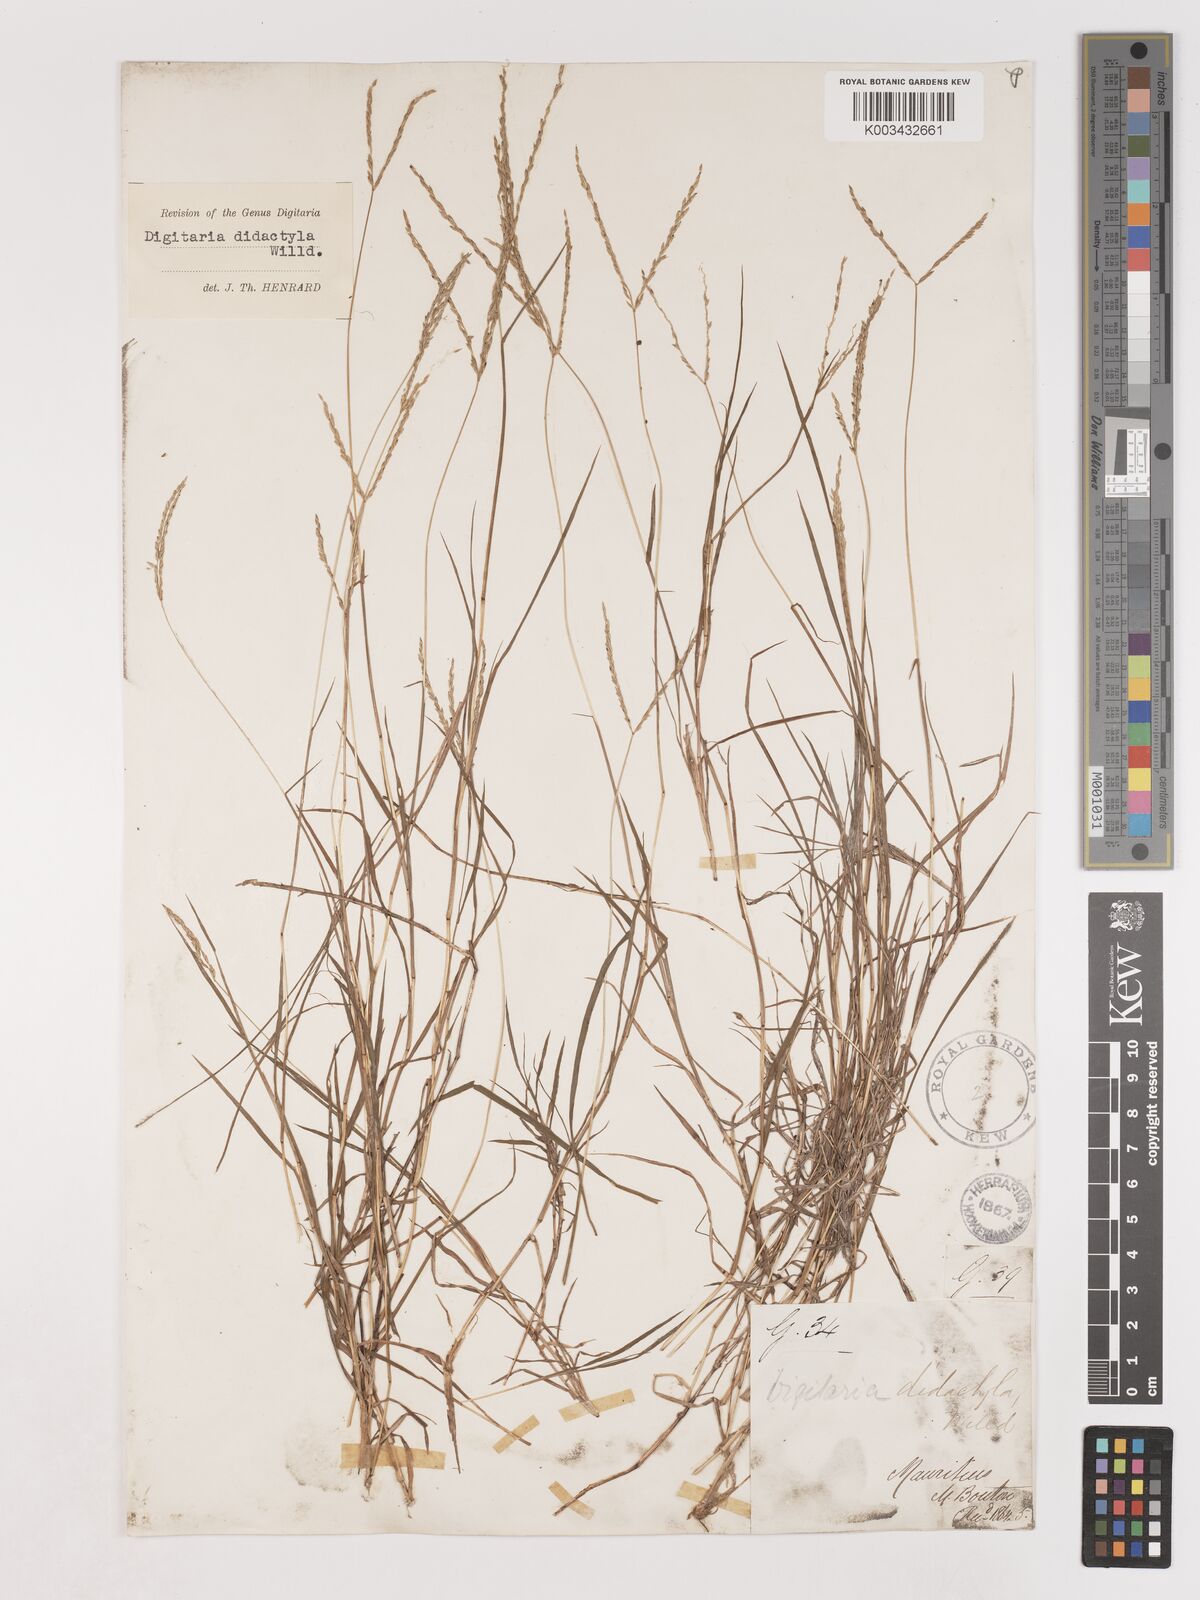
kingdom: Plantae
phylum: Tracheophyta
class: Liliopsida
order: Poales
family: Poaceae
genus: Digitaria
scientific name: Digitaria didactyla
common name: Blue couch
